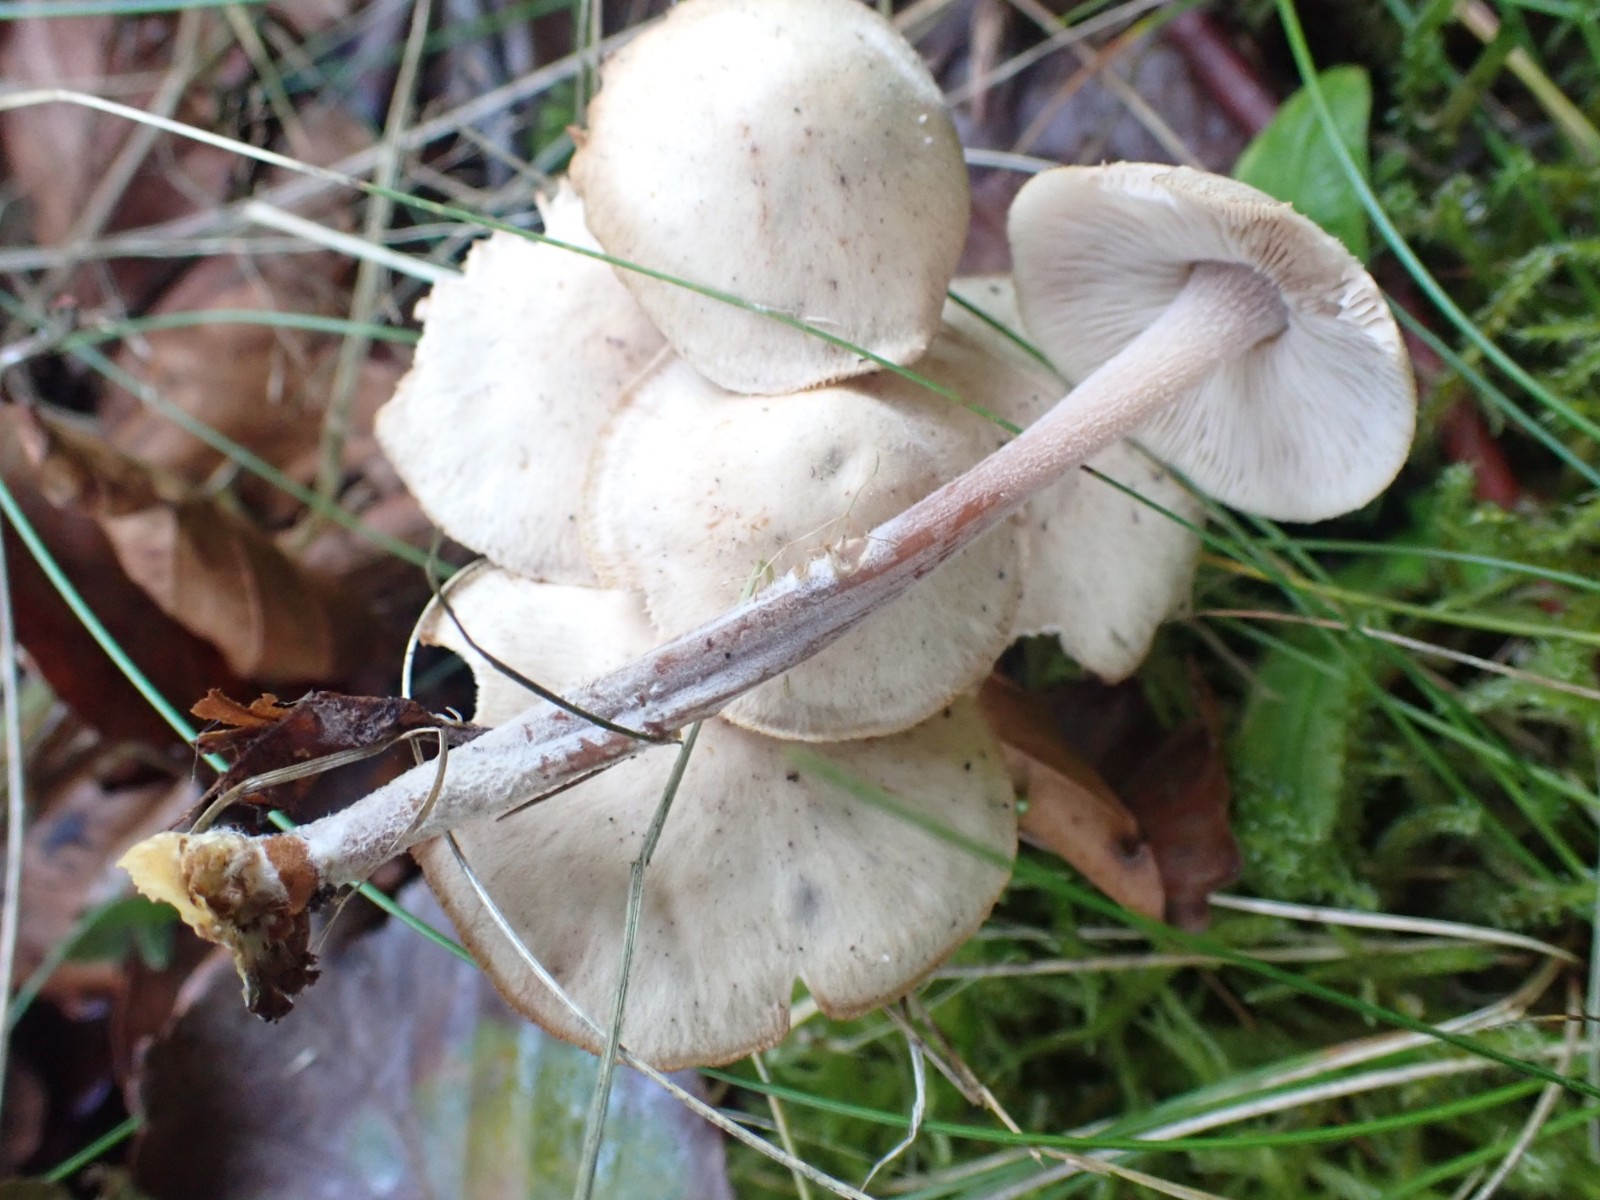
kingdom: Fungi
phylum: Basidiomycota
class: Agaricomycetes
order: Agaricales
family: Omphalotaceae
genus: Collybiopsis
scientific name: Collybiopsis confluens
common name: knippe-fladhat
